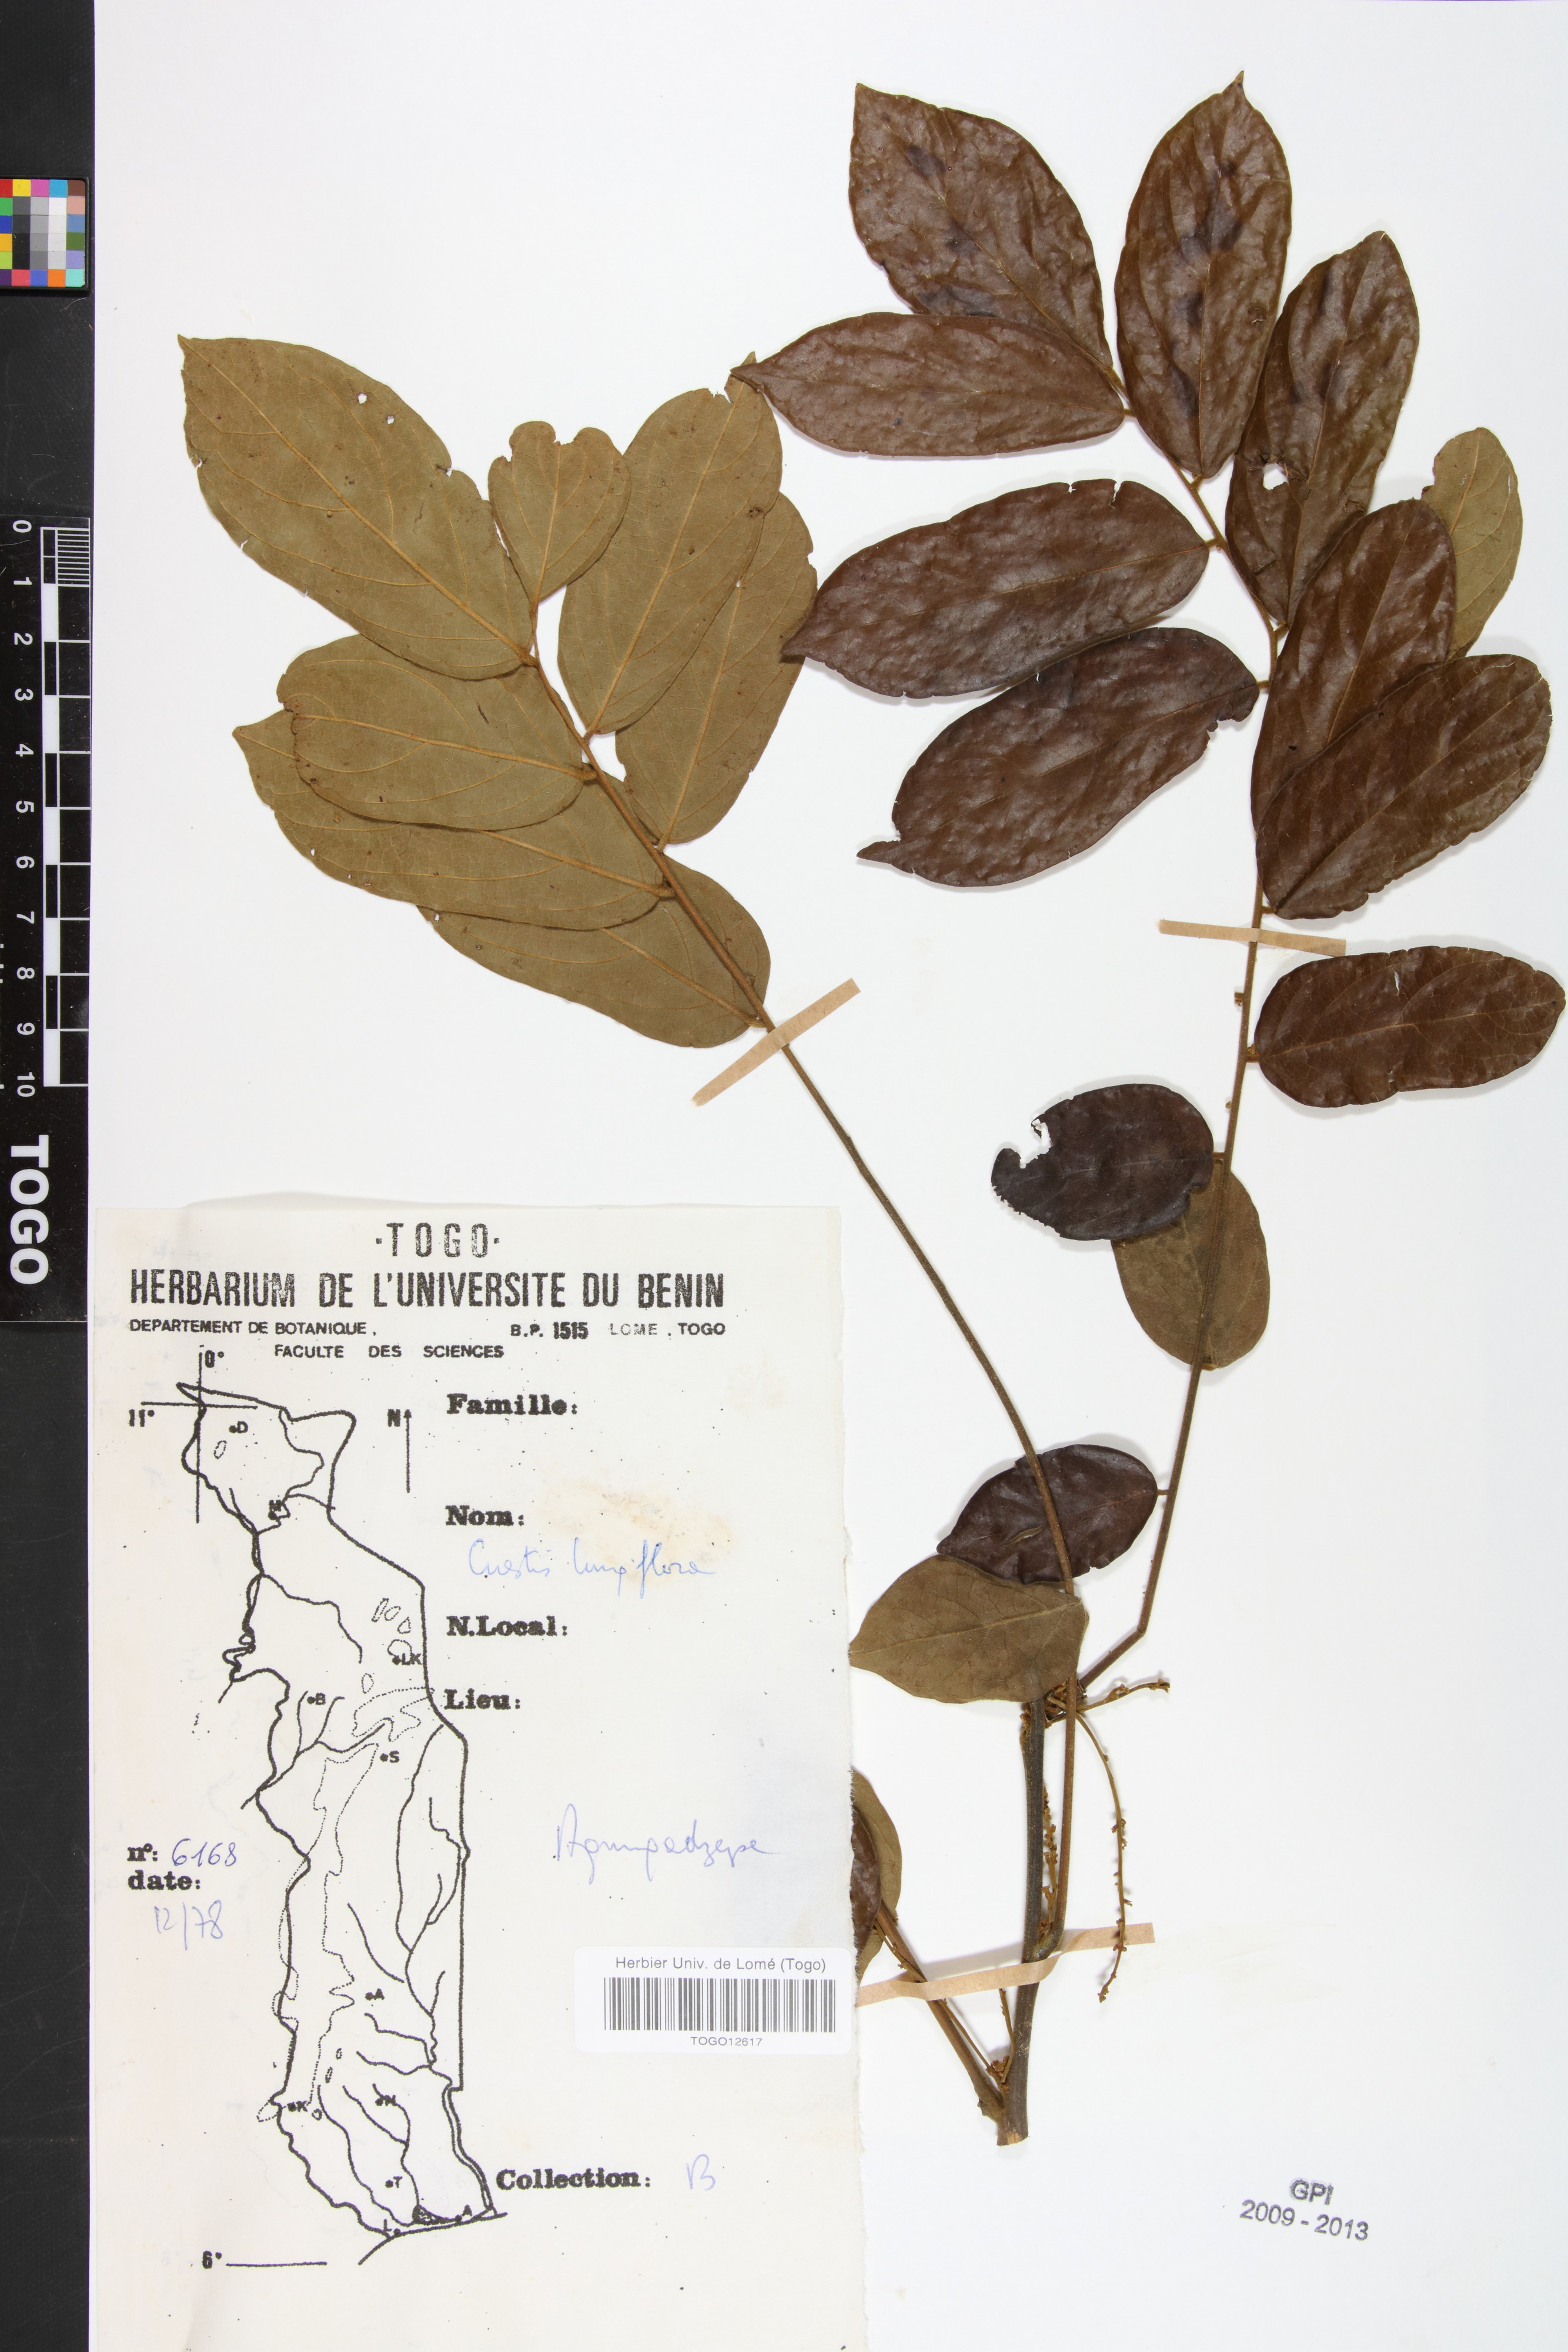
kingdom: Plantae
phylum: Tracheophyta
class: Magnoliopsida
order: Oxalidales
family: Connaraceae
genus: Cnestis
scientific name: Cnestis corniculata
